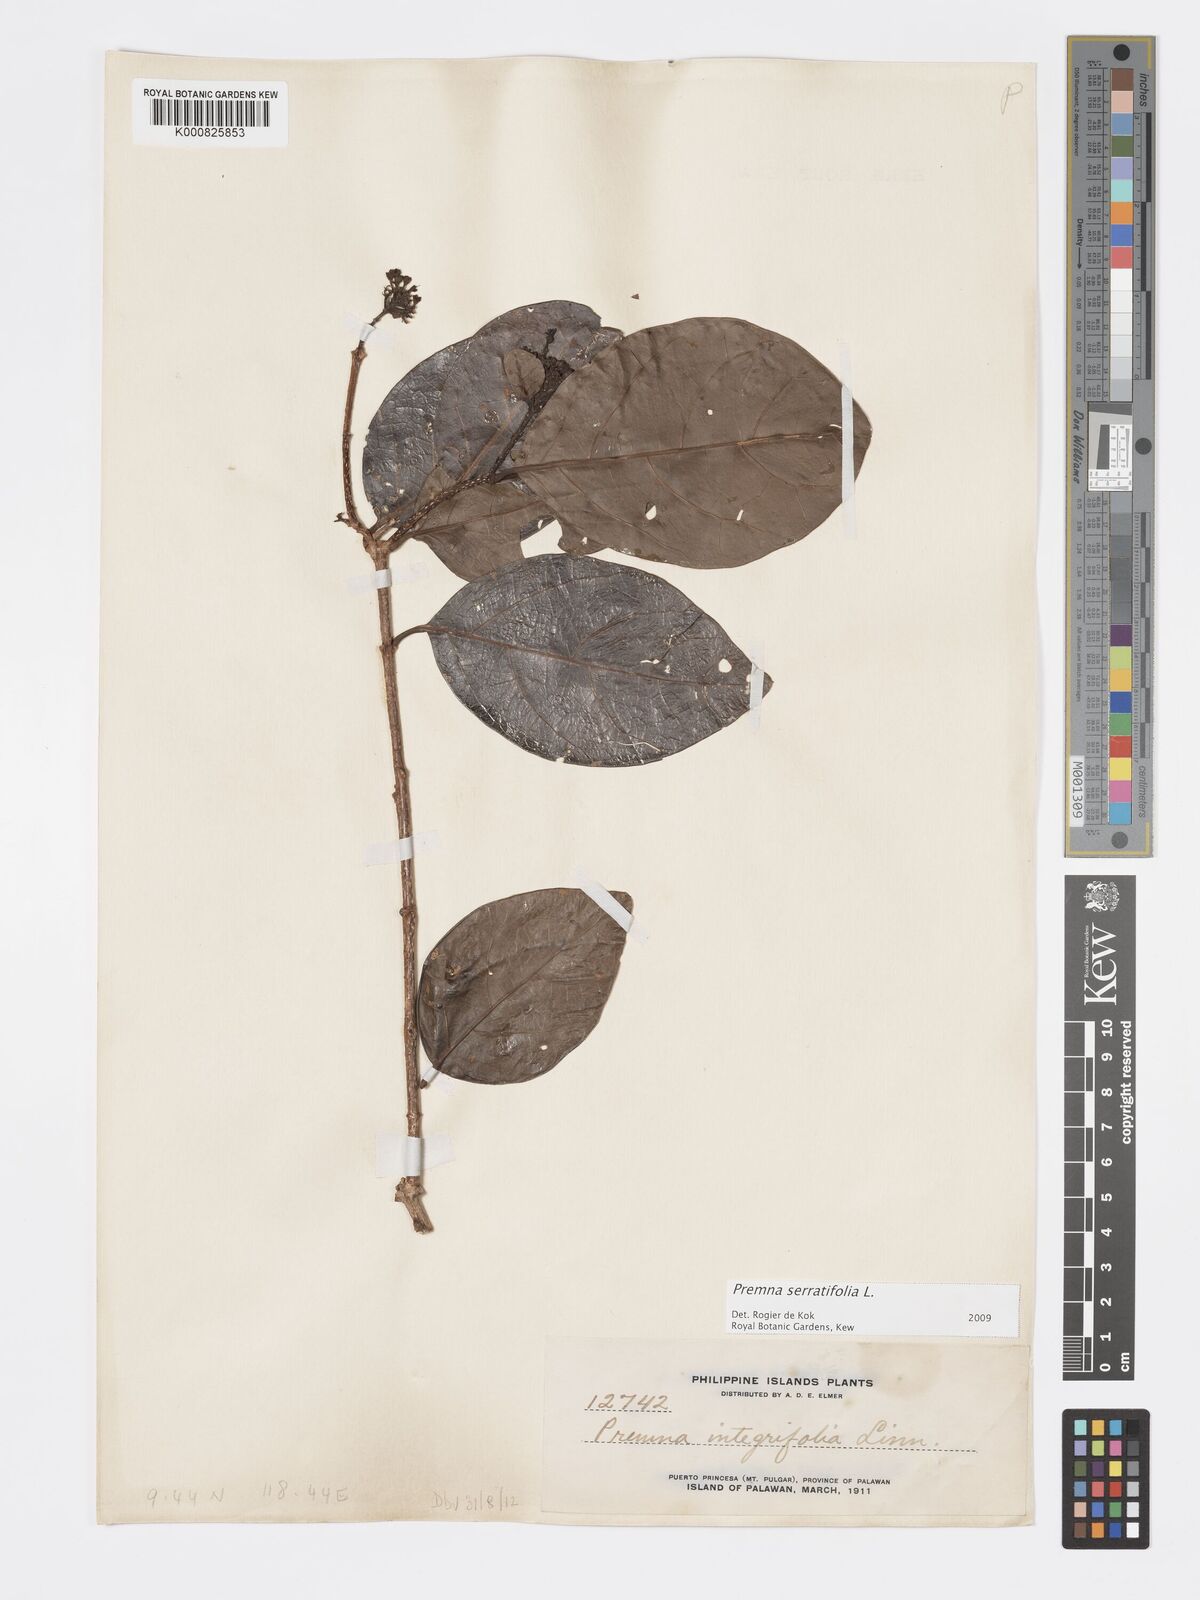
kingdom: Plantae
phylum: Tracheophyta
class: Magnoliopsida
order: Lamiales
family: Lamiaceae
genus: Premna
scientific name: Premna serratifolia
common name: Bastard guelder
